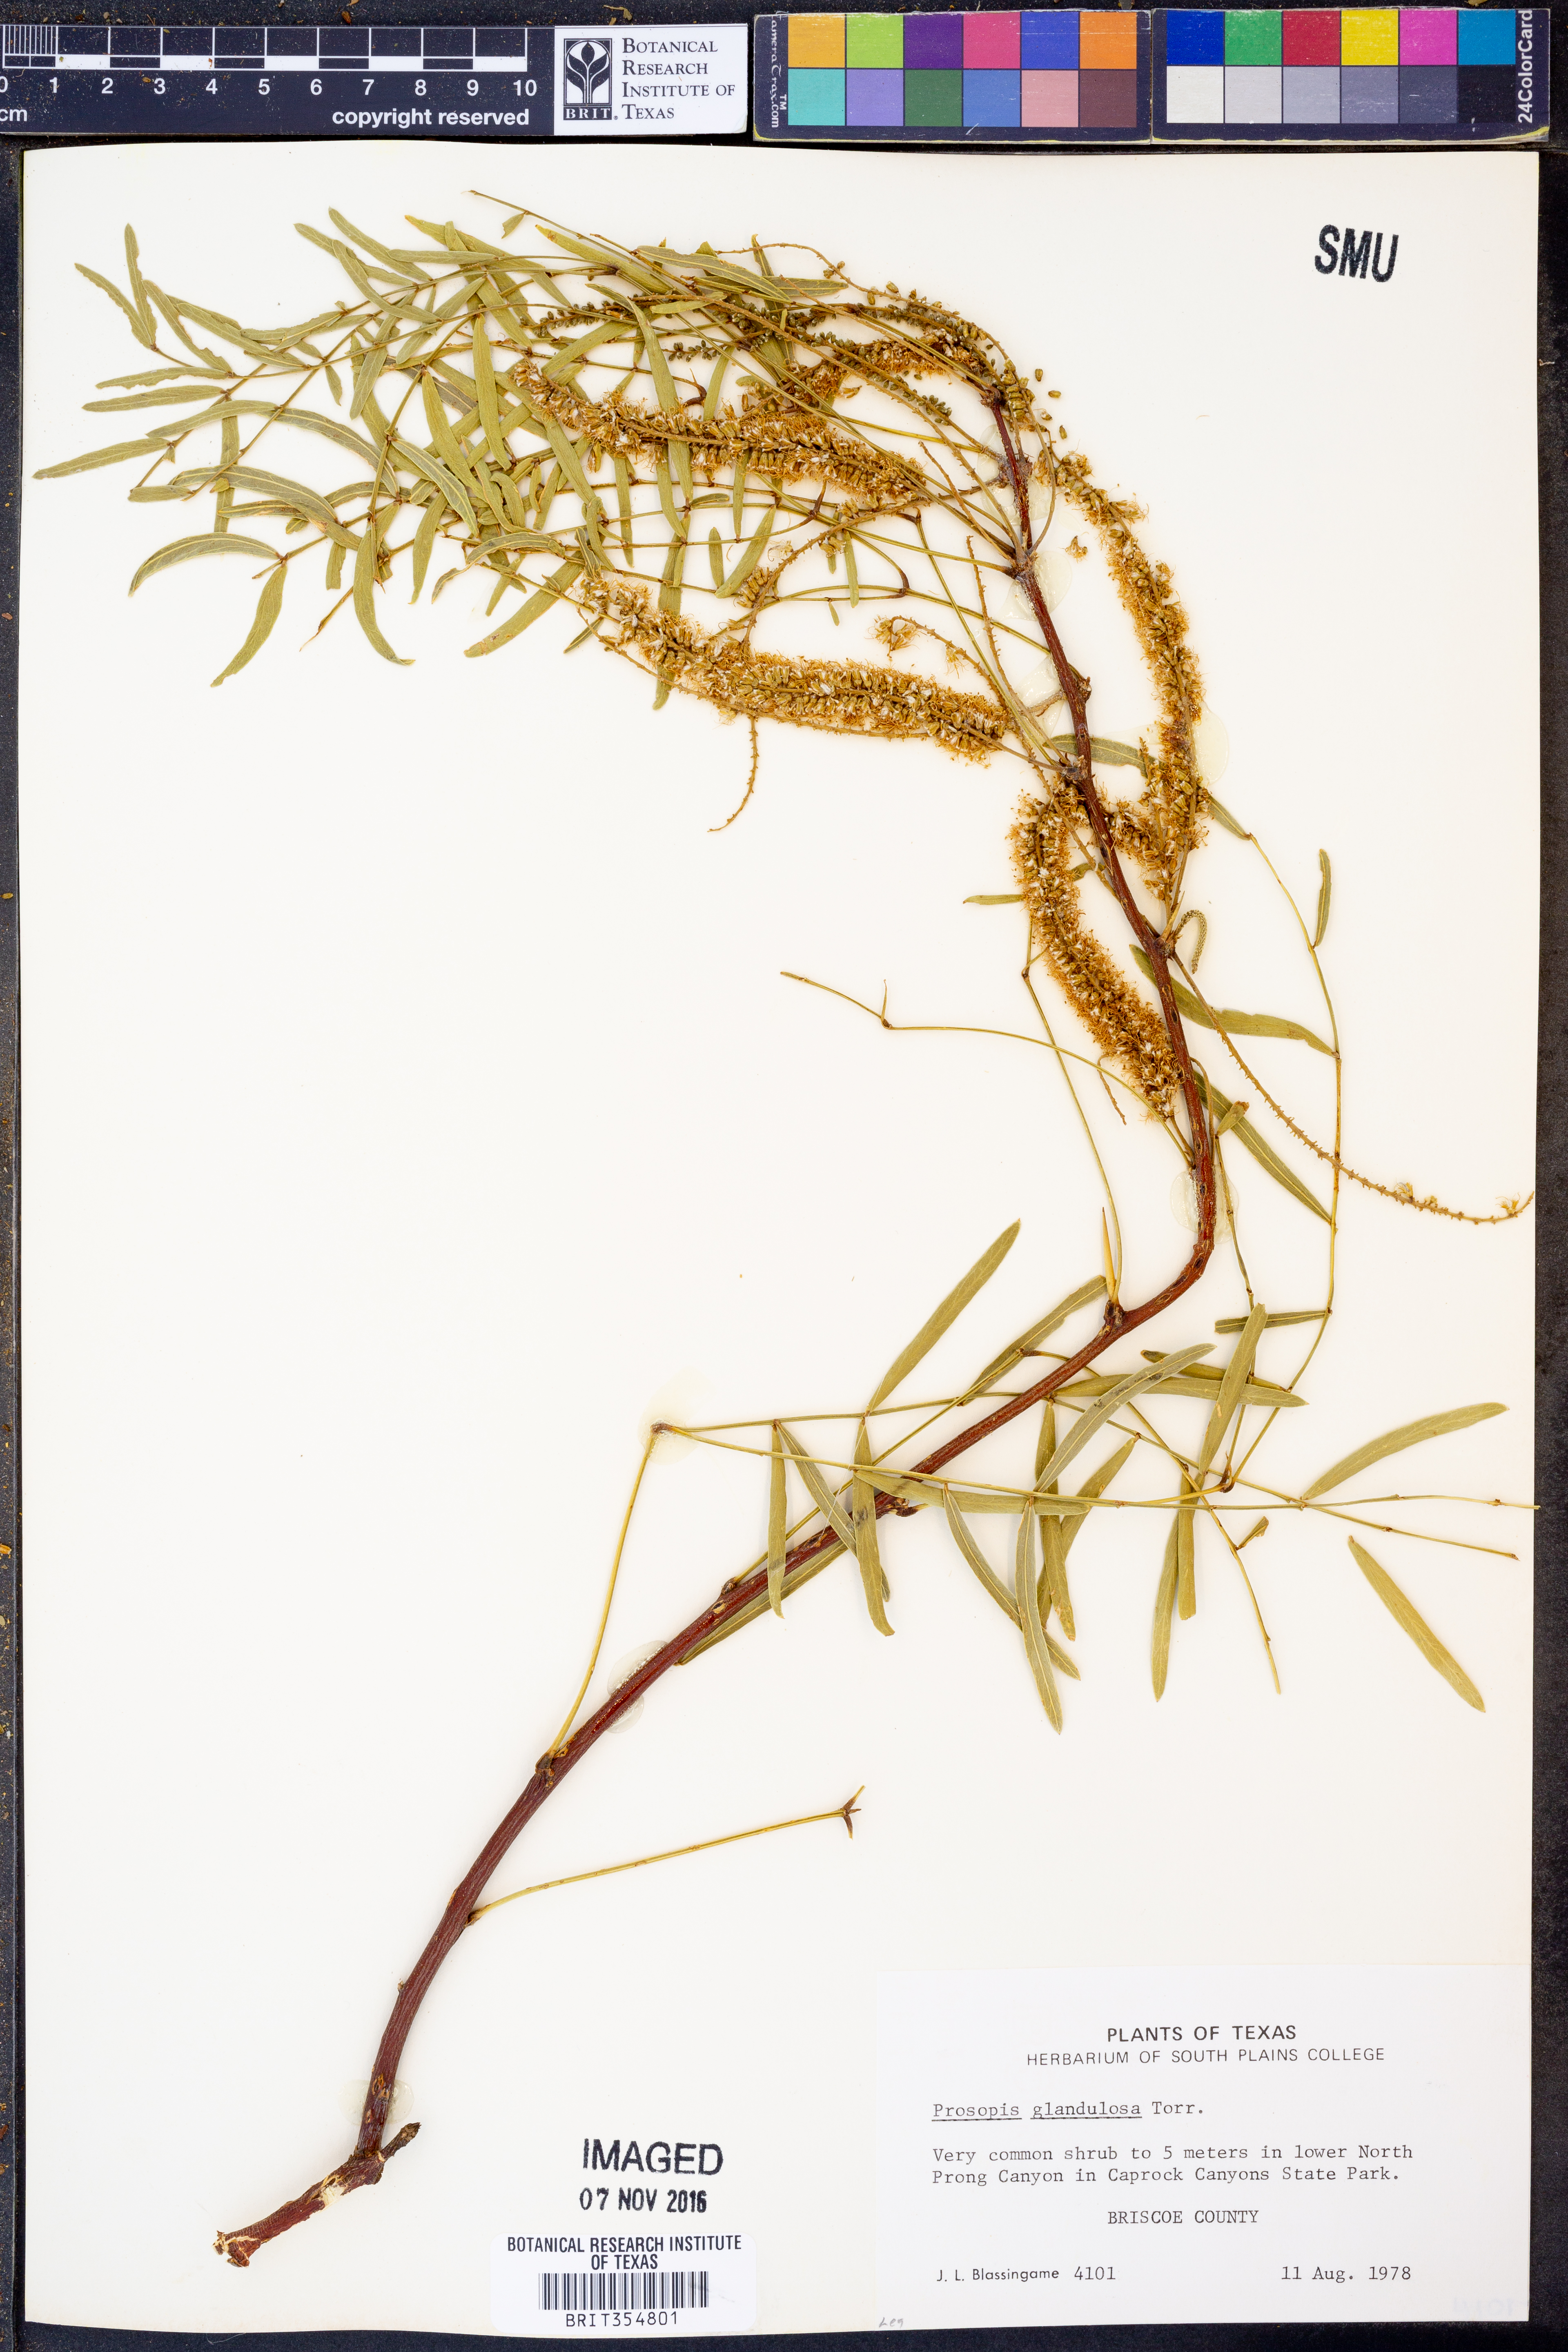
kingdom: Plantae
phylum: Tracheophyta
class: Magnoliopsida
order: Fabales
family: Fabaceae
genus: Prosopis
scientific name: Prosopis glandulosa
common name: Honey mesquite
